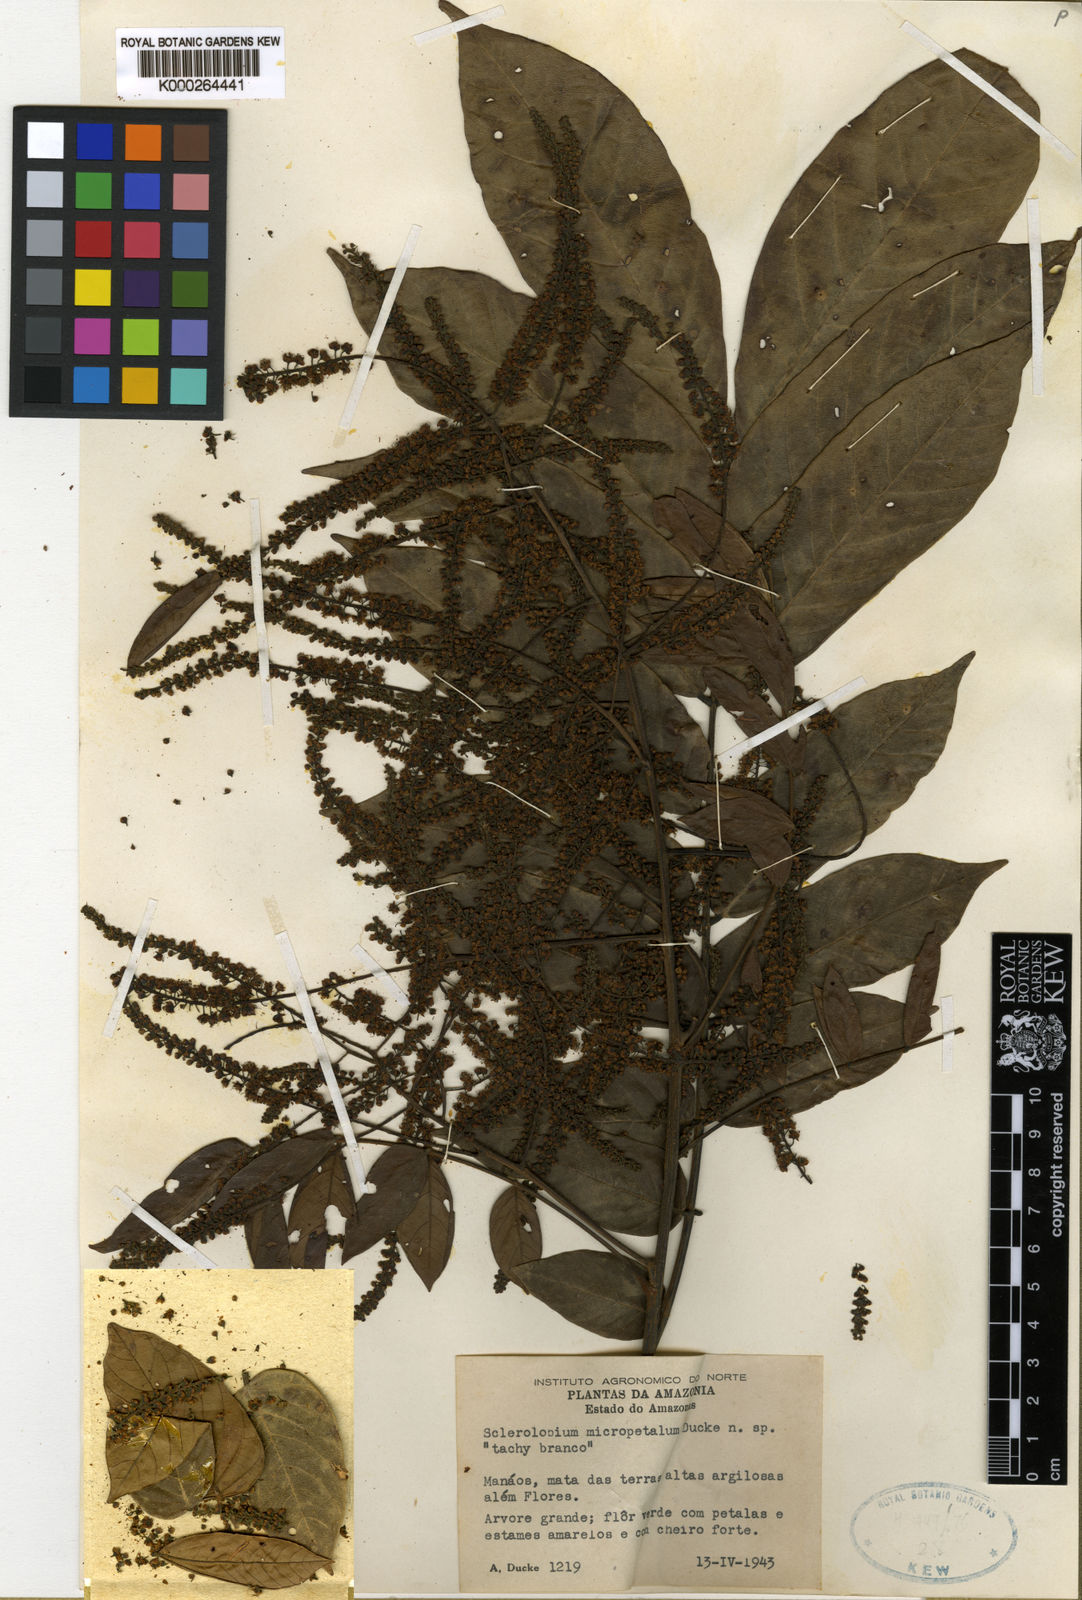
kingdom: Plantae
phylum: Tracheophyta
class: Magnoliopsida
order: Fabales
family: Fabaceae
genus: Tachigali
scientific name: Tachigali micropetala
